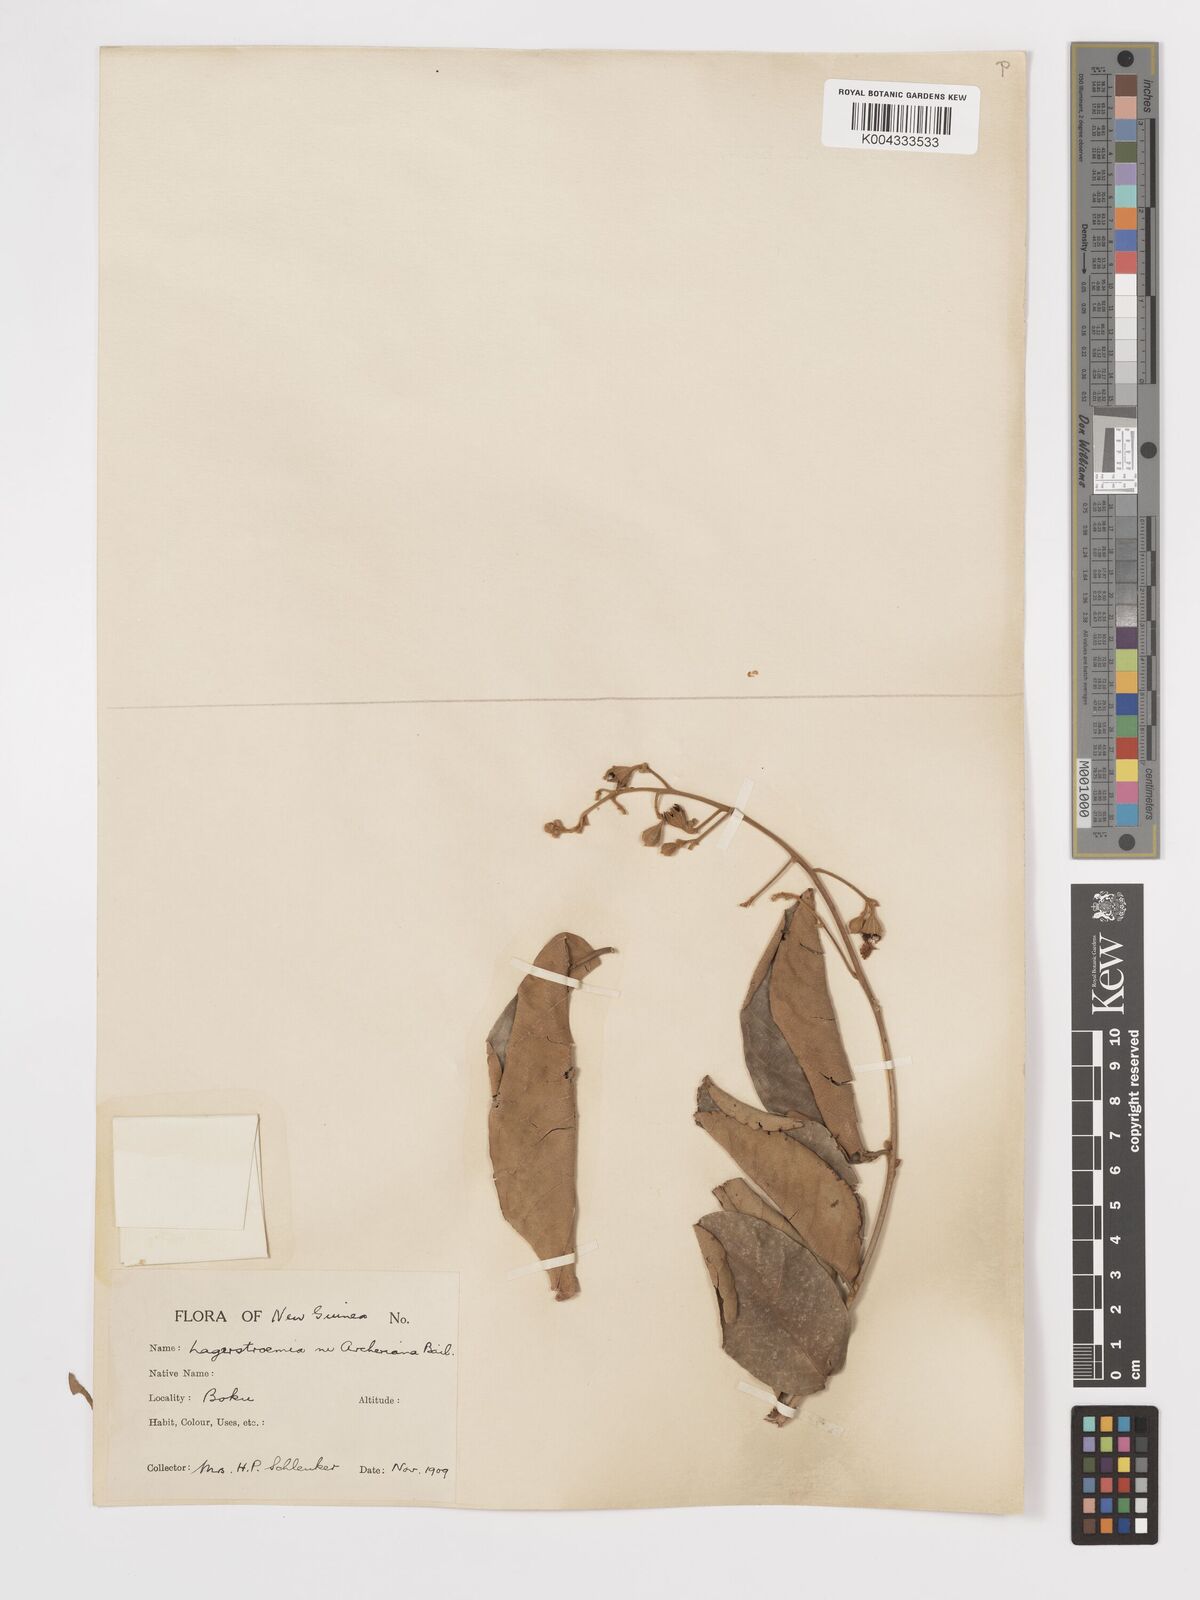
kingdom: Plantae
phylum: Tracheophyta
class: Magnoliopsida
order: Myrtales
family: Lythraceae
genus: Lagerstroemia
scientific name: Lagerstroemia engleriana
